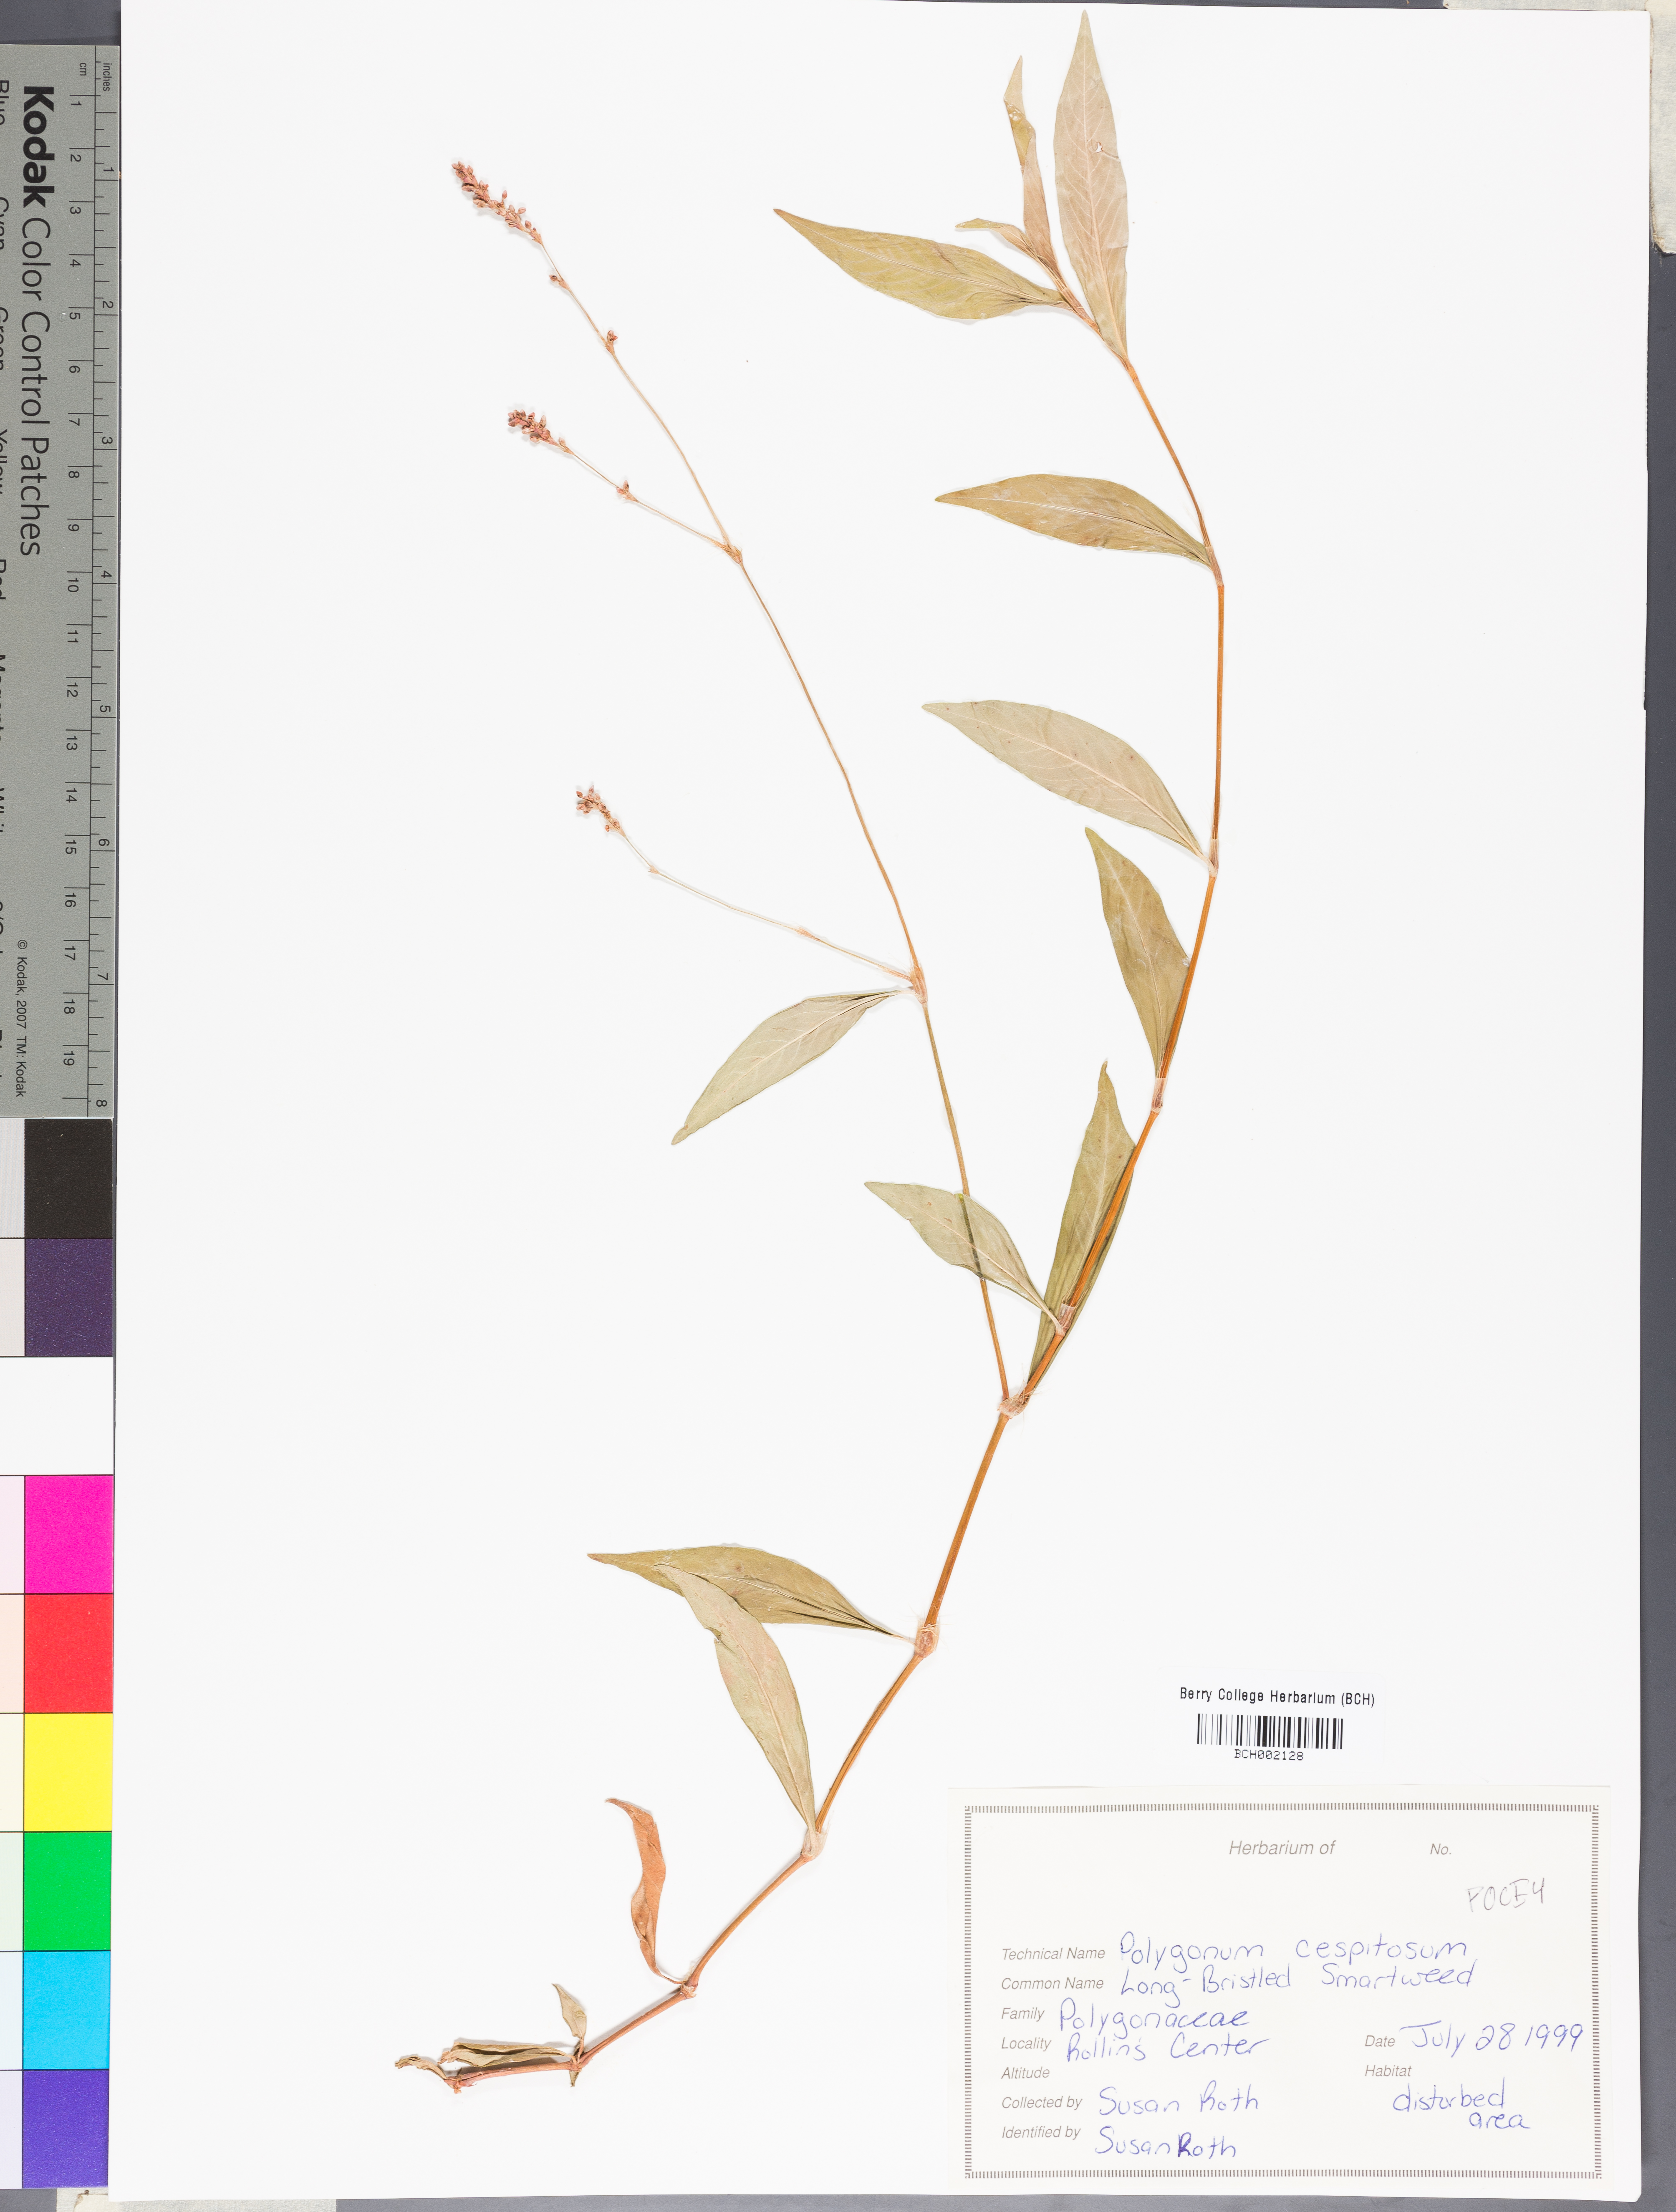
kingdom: Plantae
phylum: Tracheophyta
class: Magnoliopsida
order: Caryophyllales
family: Polygonaceae
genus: Persicaria
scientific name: Persicaria posumbu
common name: Oriental lady's thumb
